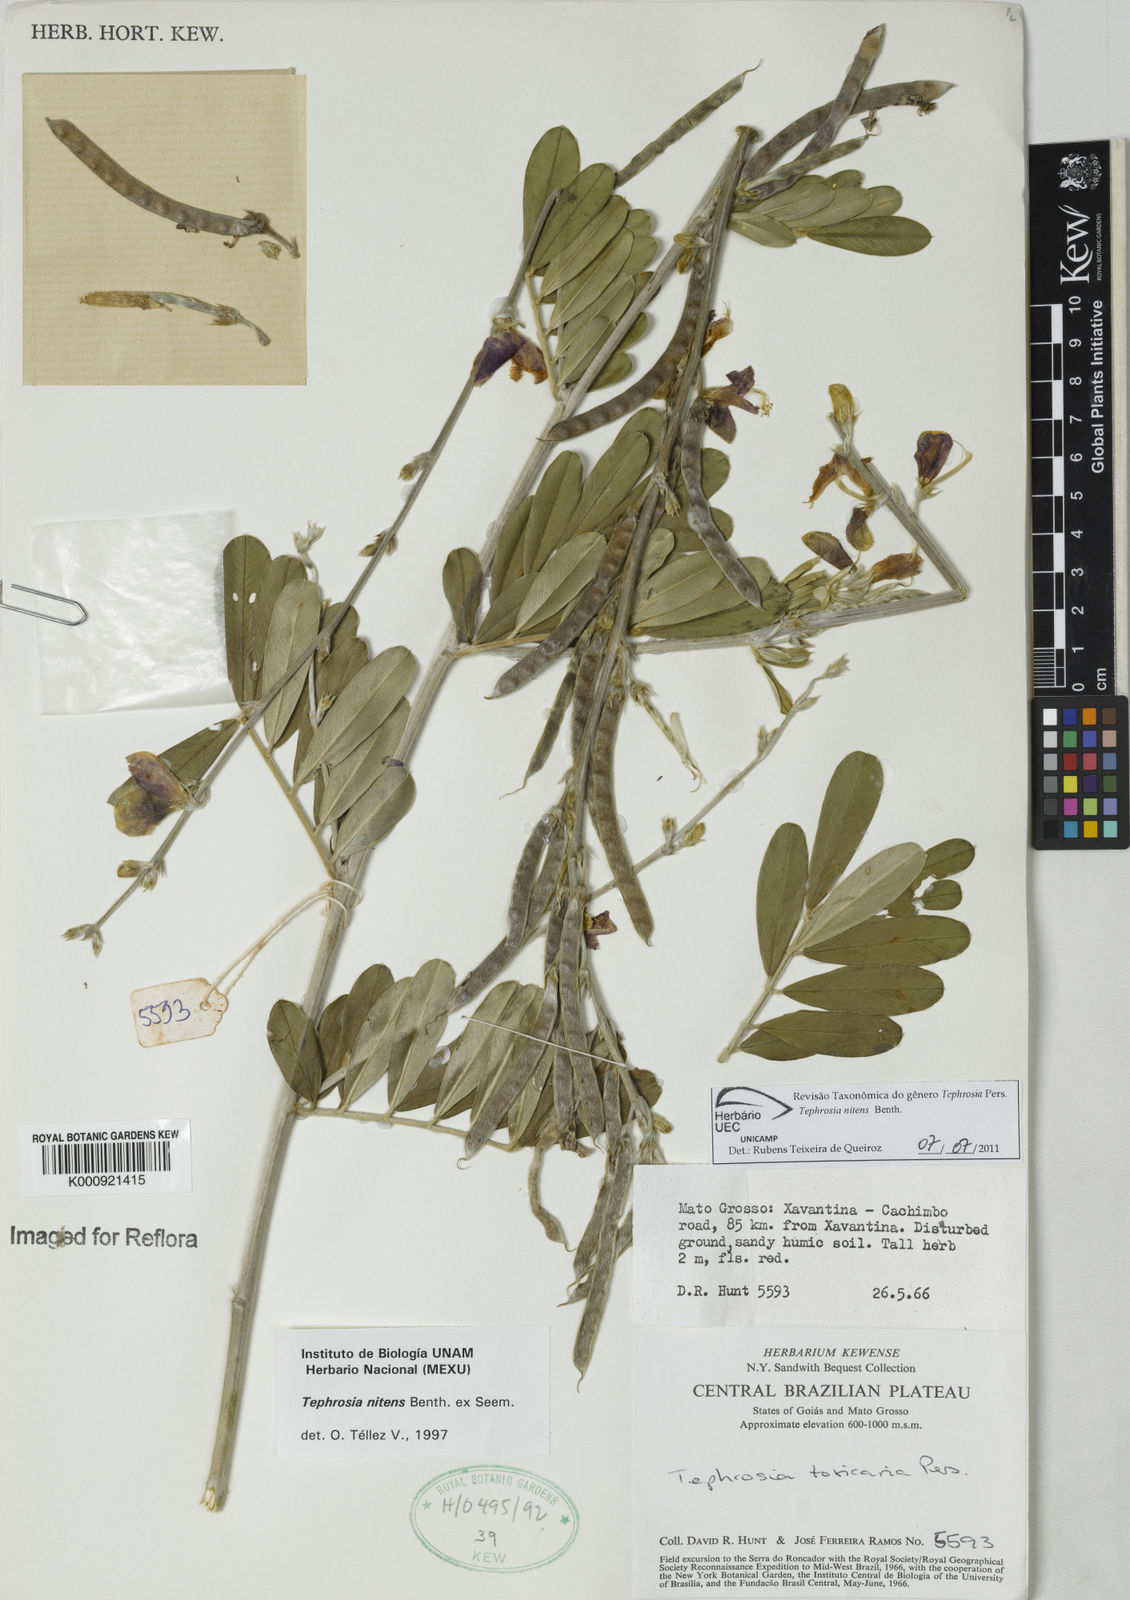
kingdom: Plantae
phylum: Tracheophyta
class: Magnoliopsida
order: Fabales
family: Fabaceae
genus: Tephrosia
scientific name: Tephrosia nitens
